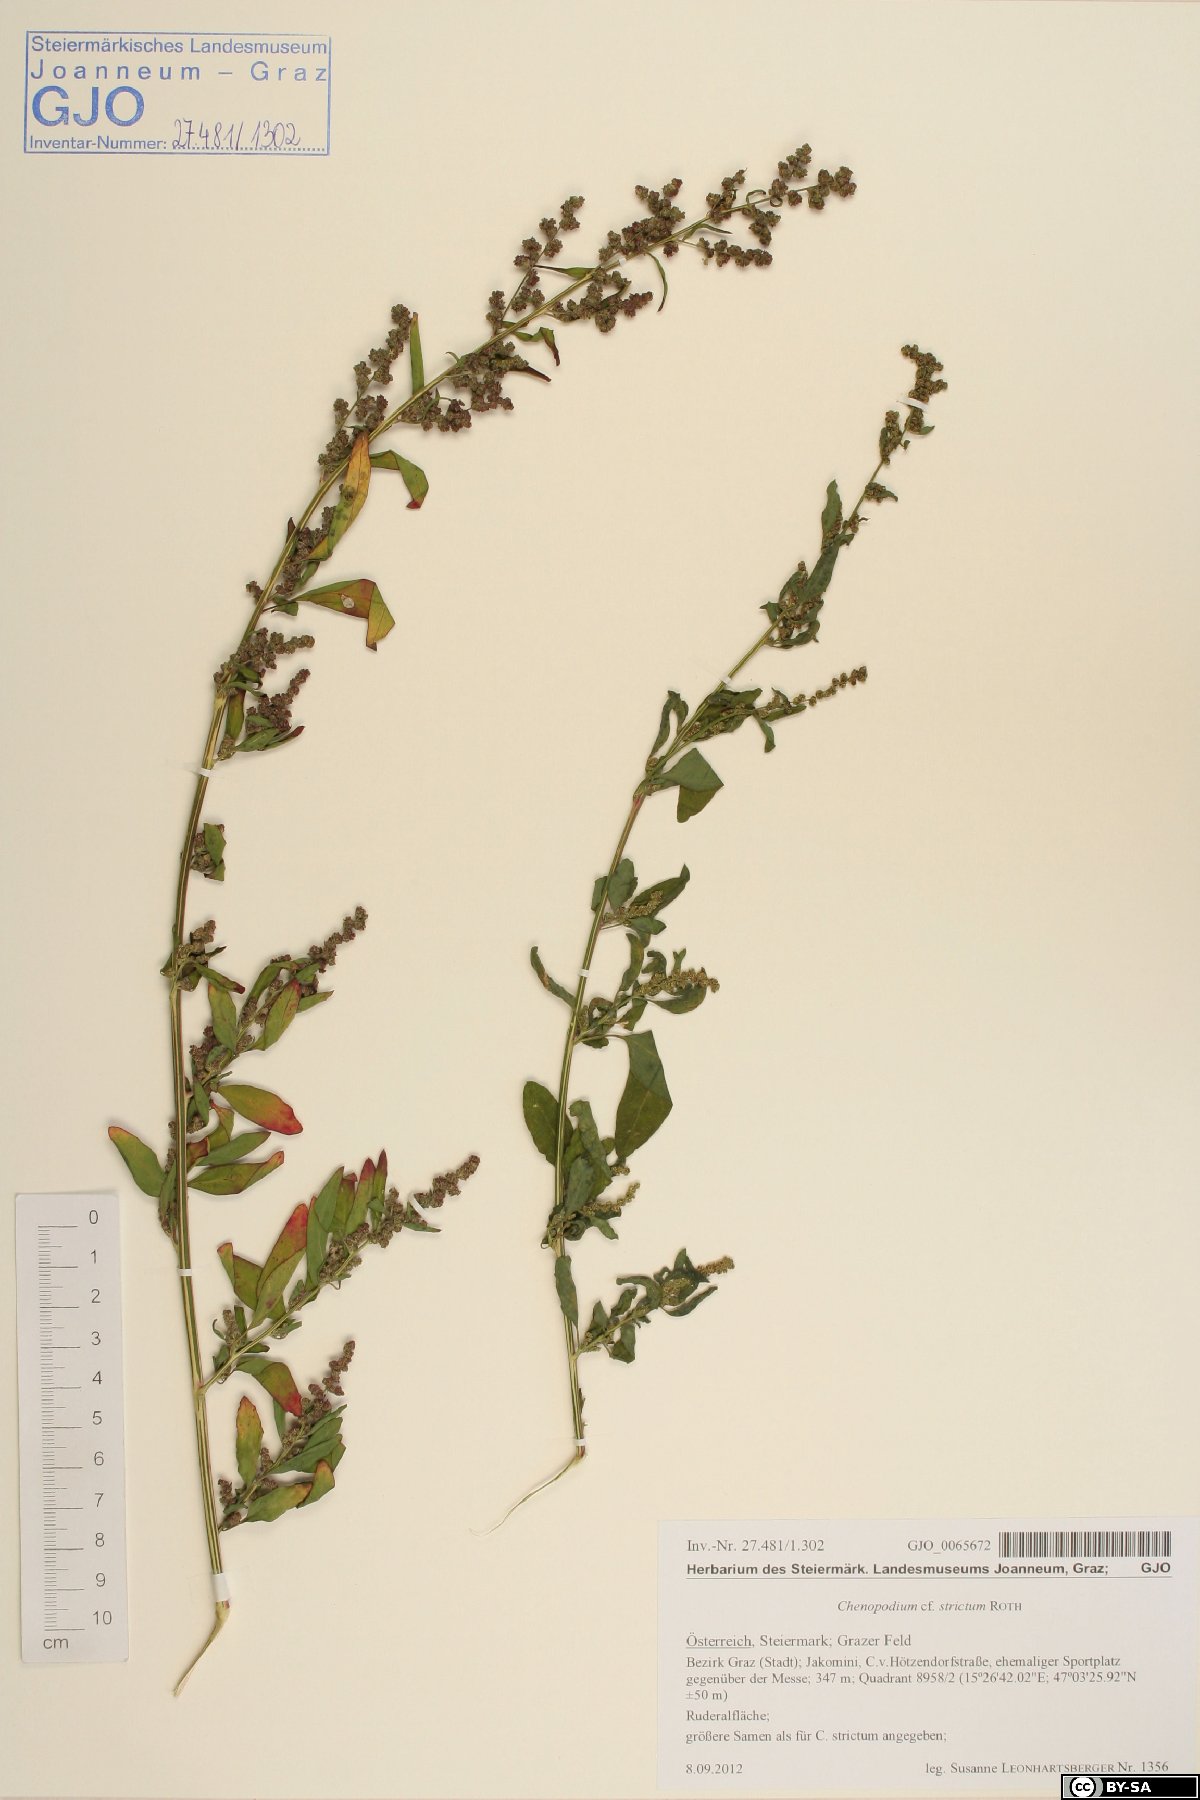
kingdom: Plantae
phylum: Tracheophyta
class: Magnoliopsida
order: Caryophyllales
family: Amaranthaceae
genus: Chenopodium
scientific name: Chenopodium album
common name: Fat-hen
